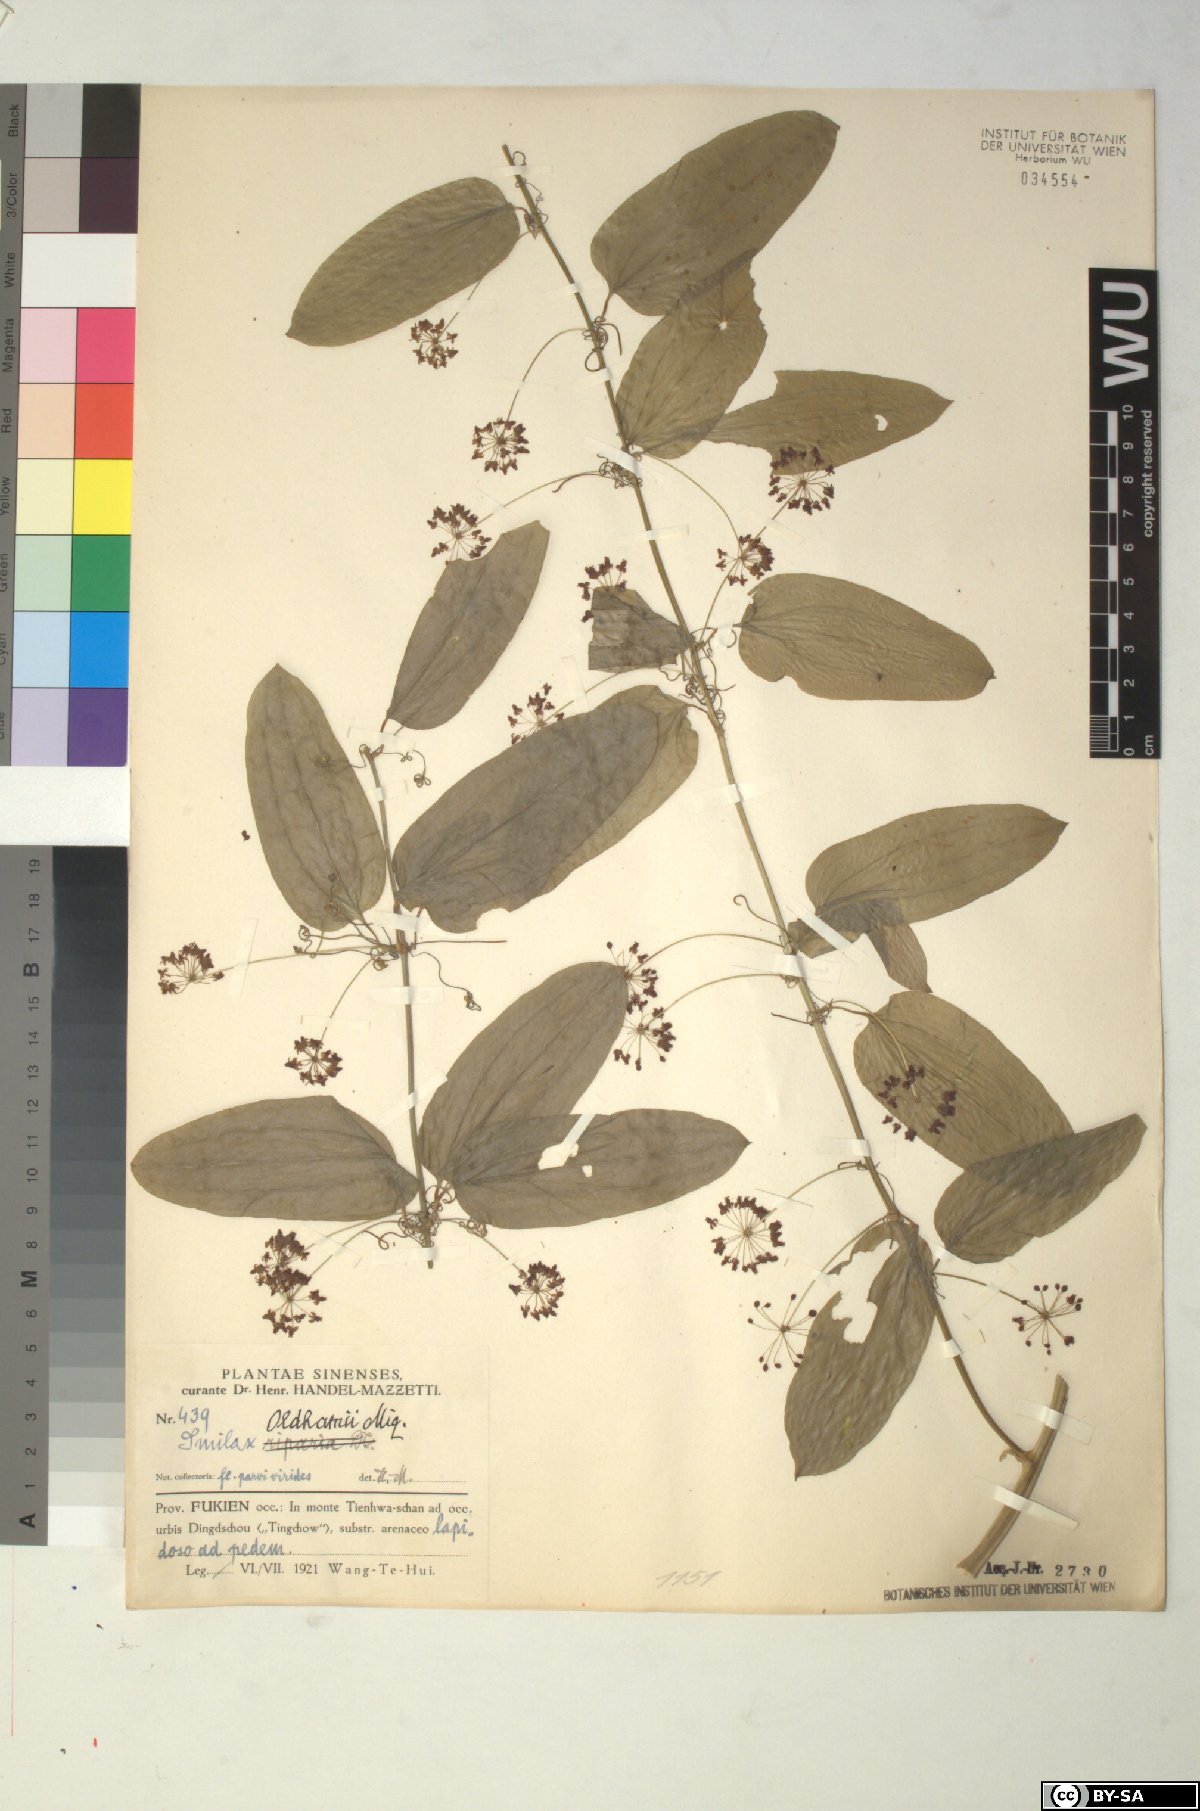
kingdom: Plantae
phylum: Tracheophyta
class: Liliopsida
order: Liliales
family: Smilacaceae
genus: Smilax
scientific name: Smilax sieboldii
